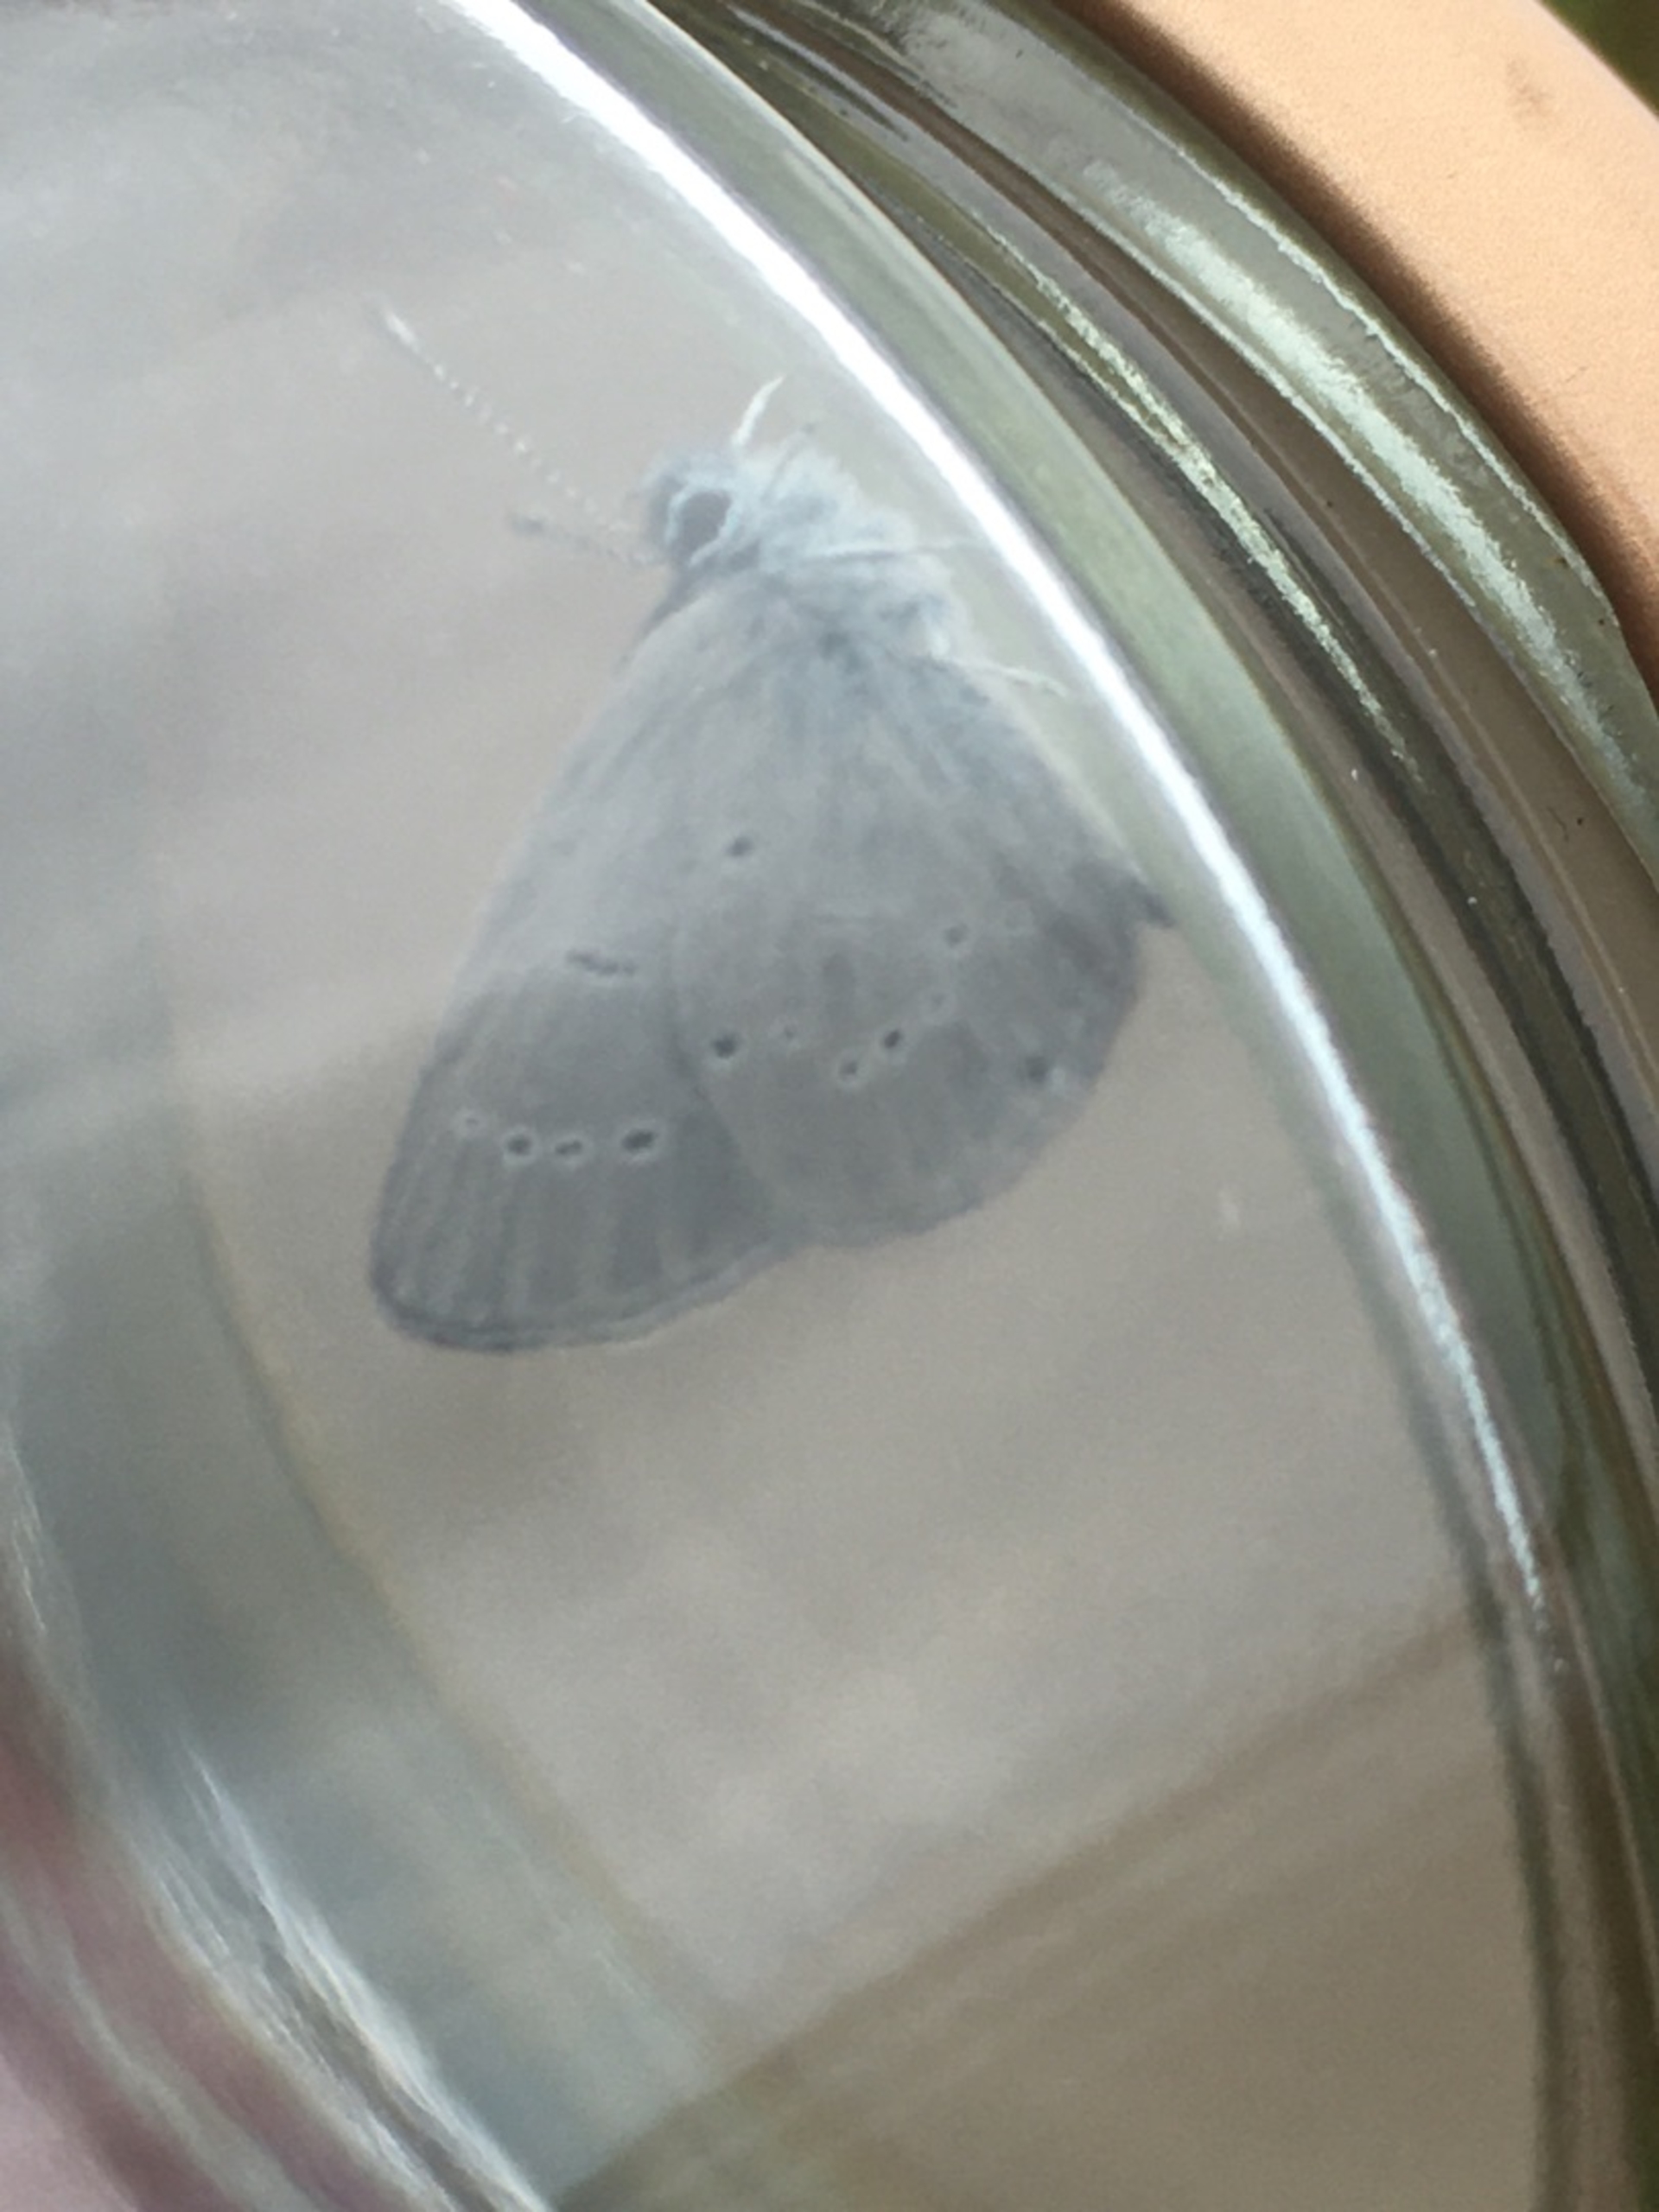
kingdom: Animalia
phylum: Arthropoda
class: Insecta
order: Lepidoptera
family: Lycaenidae
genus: Cupido
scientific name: Cupido minimus
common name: Dværgblåfugl
